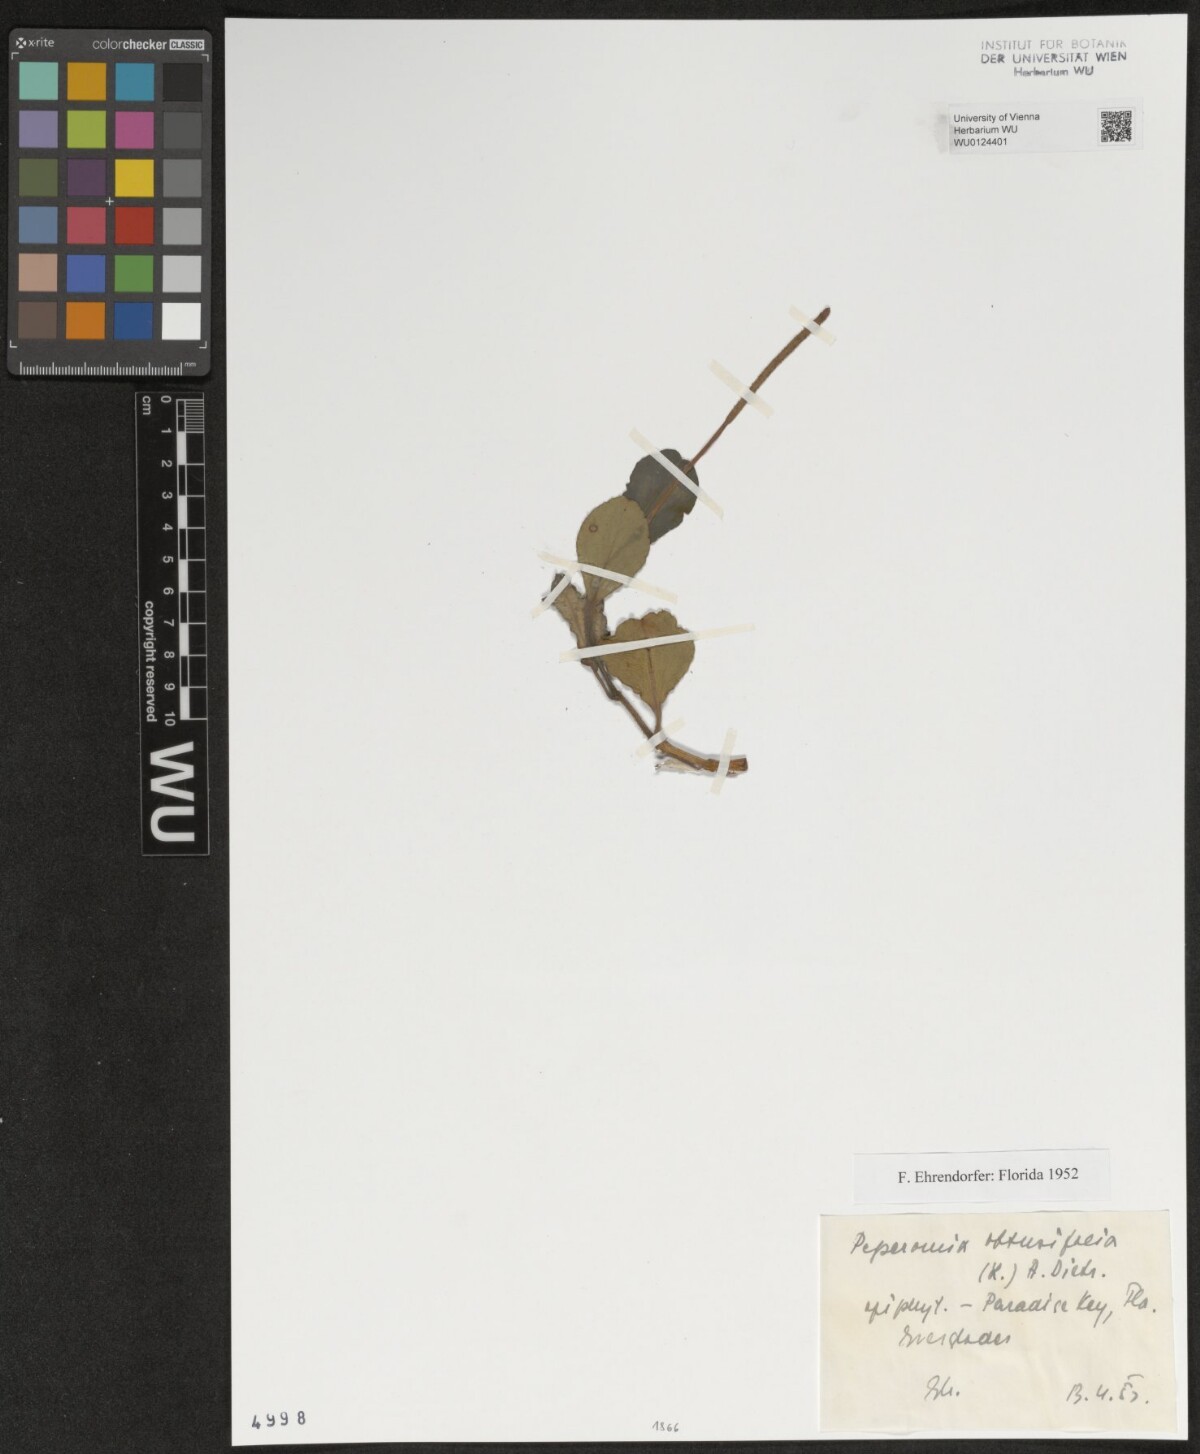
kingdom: Plantae
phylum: Tracheophyta
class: Magnoliopsida
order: Piperales
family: Piperaceae
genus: Peperomia
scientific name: Peperomia obtusifolia
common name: Baby rubberplant
